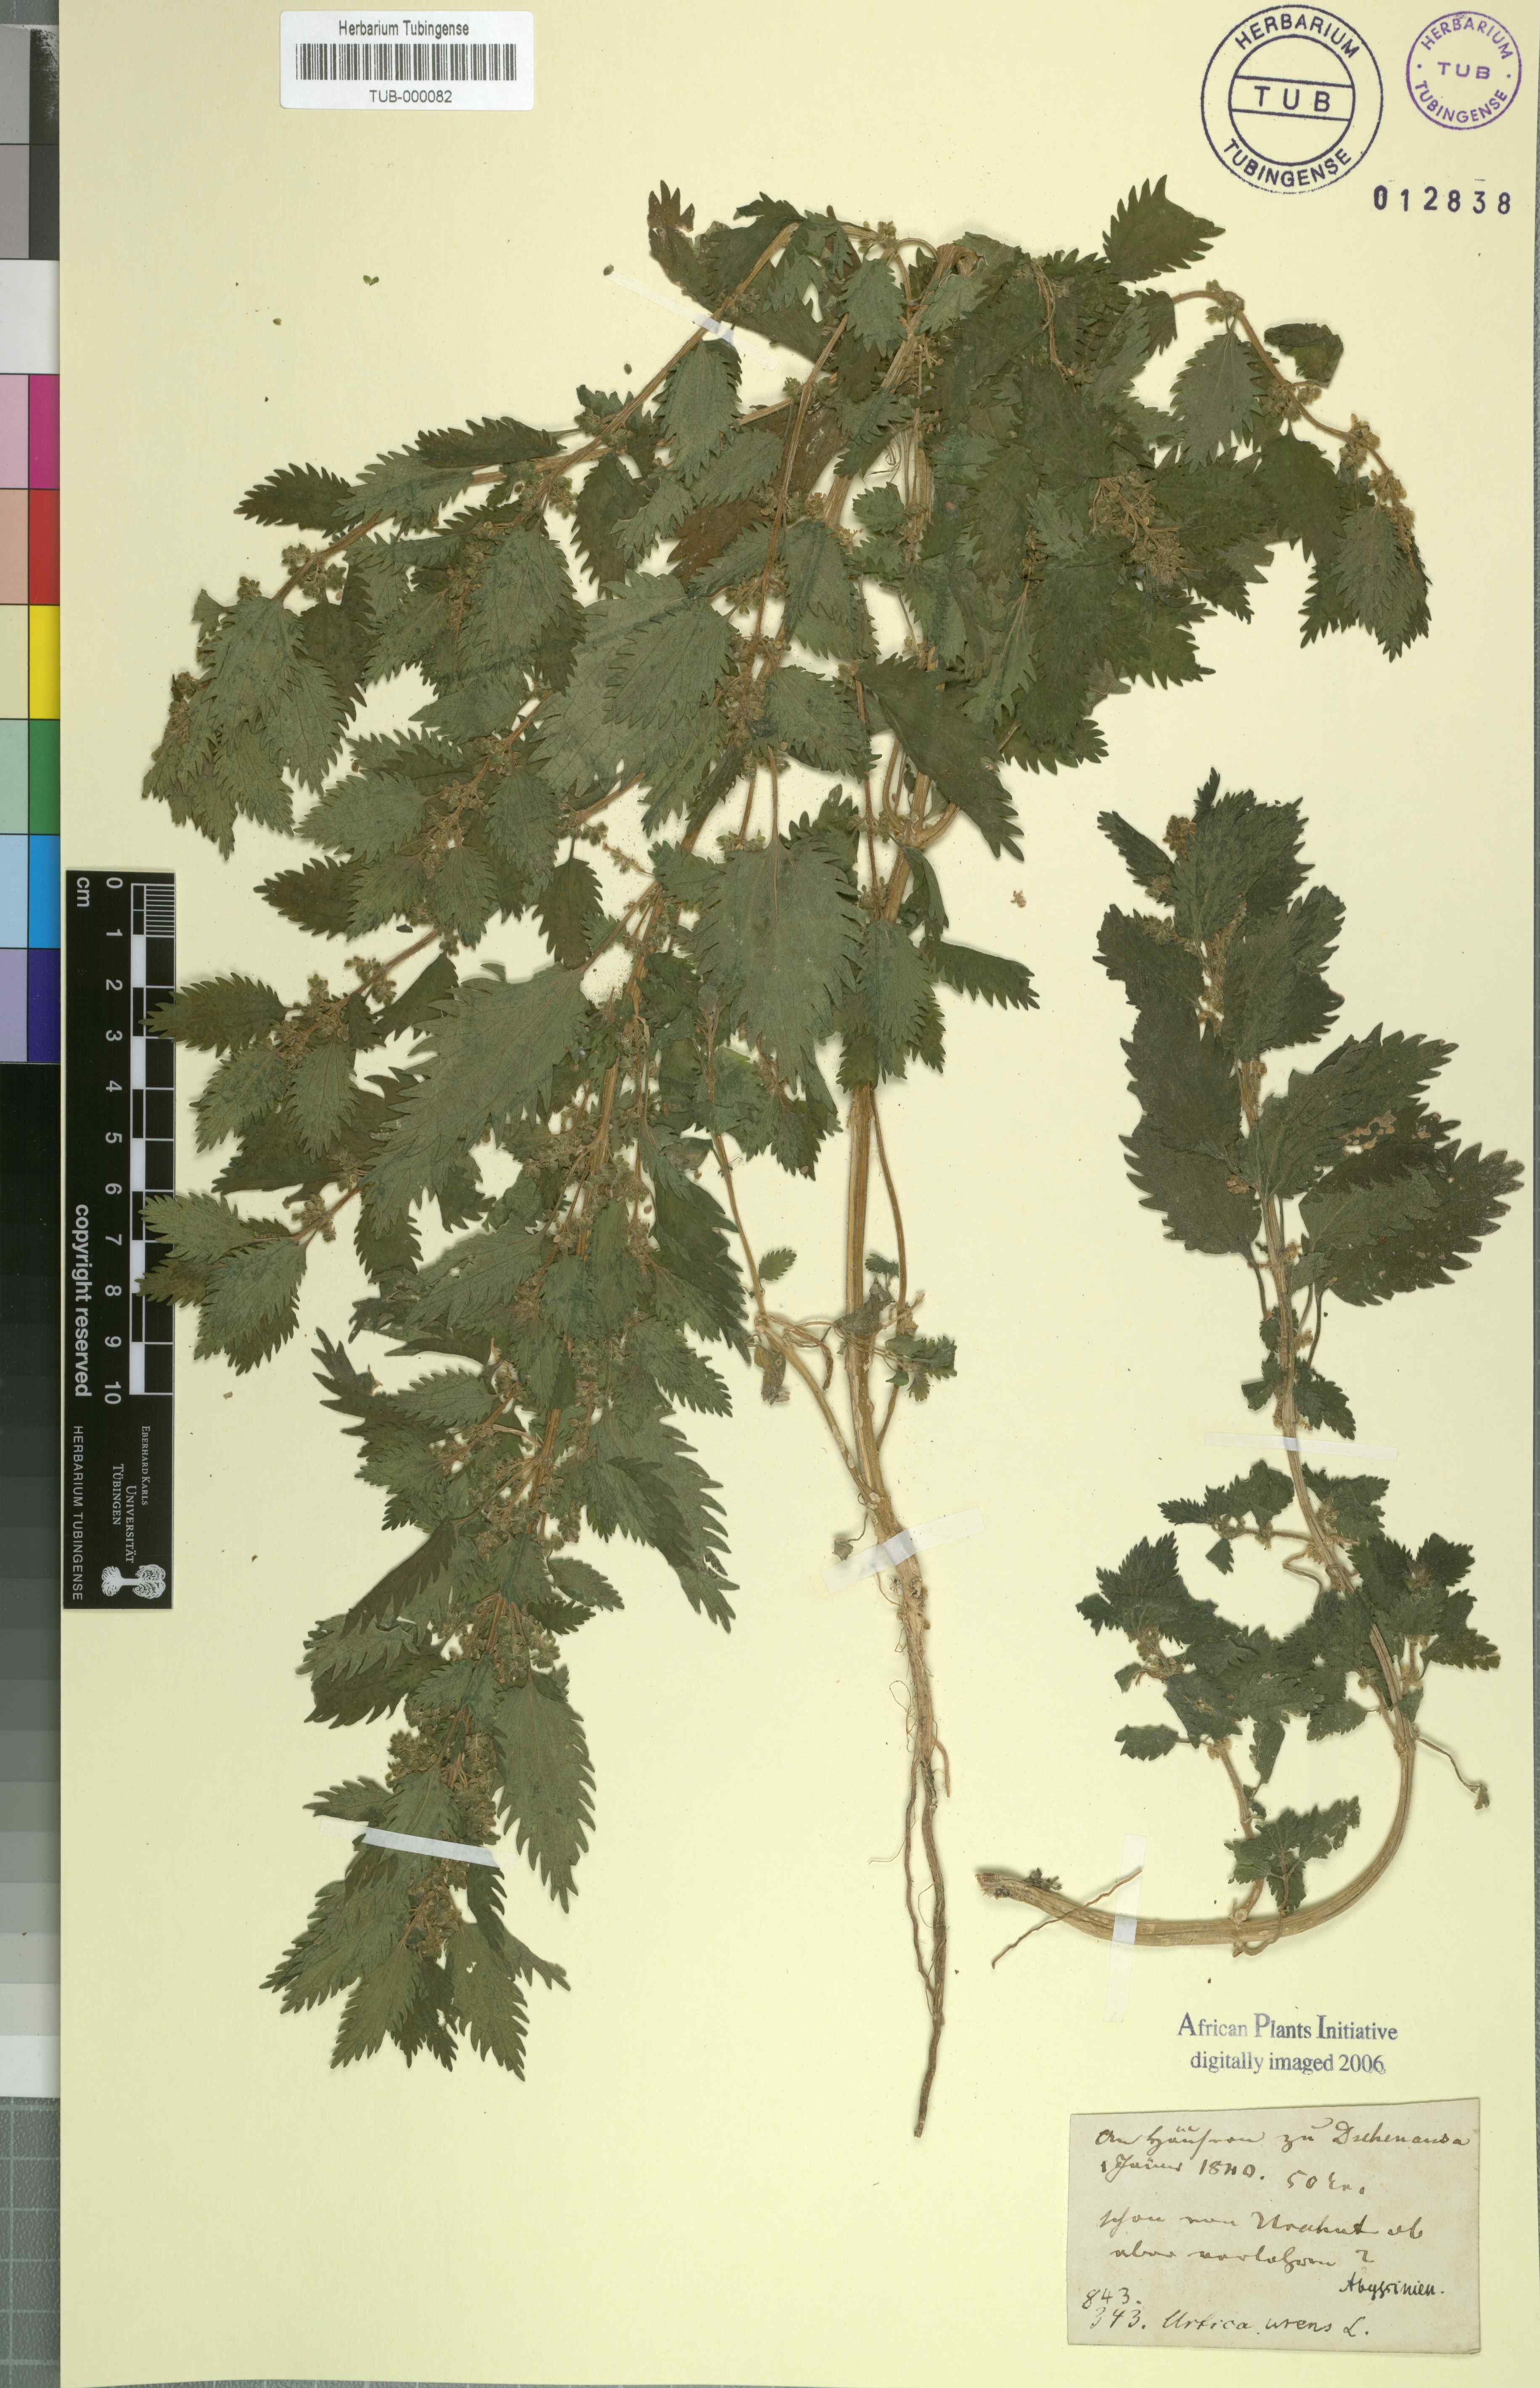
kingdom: Plantae
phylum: Tracheophyta
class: Magnoliopsida
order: Rosales
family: Urticaceae
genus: Urtica
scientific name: Urtica urens
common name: Dwarf nettle
